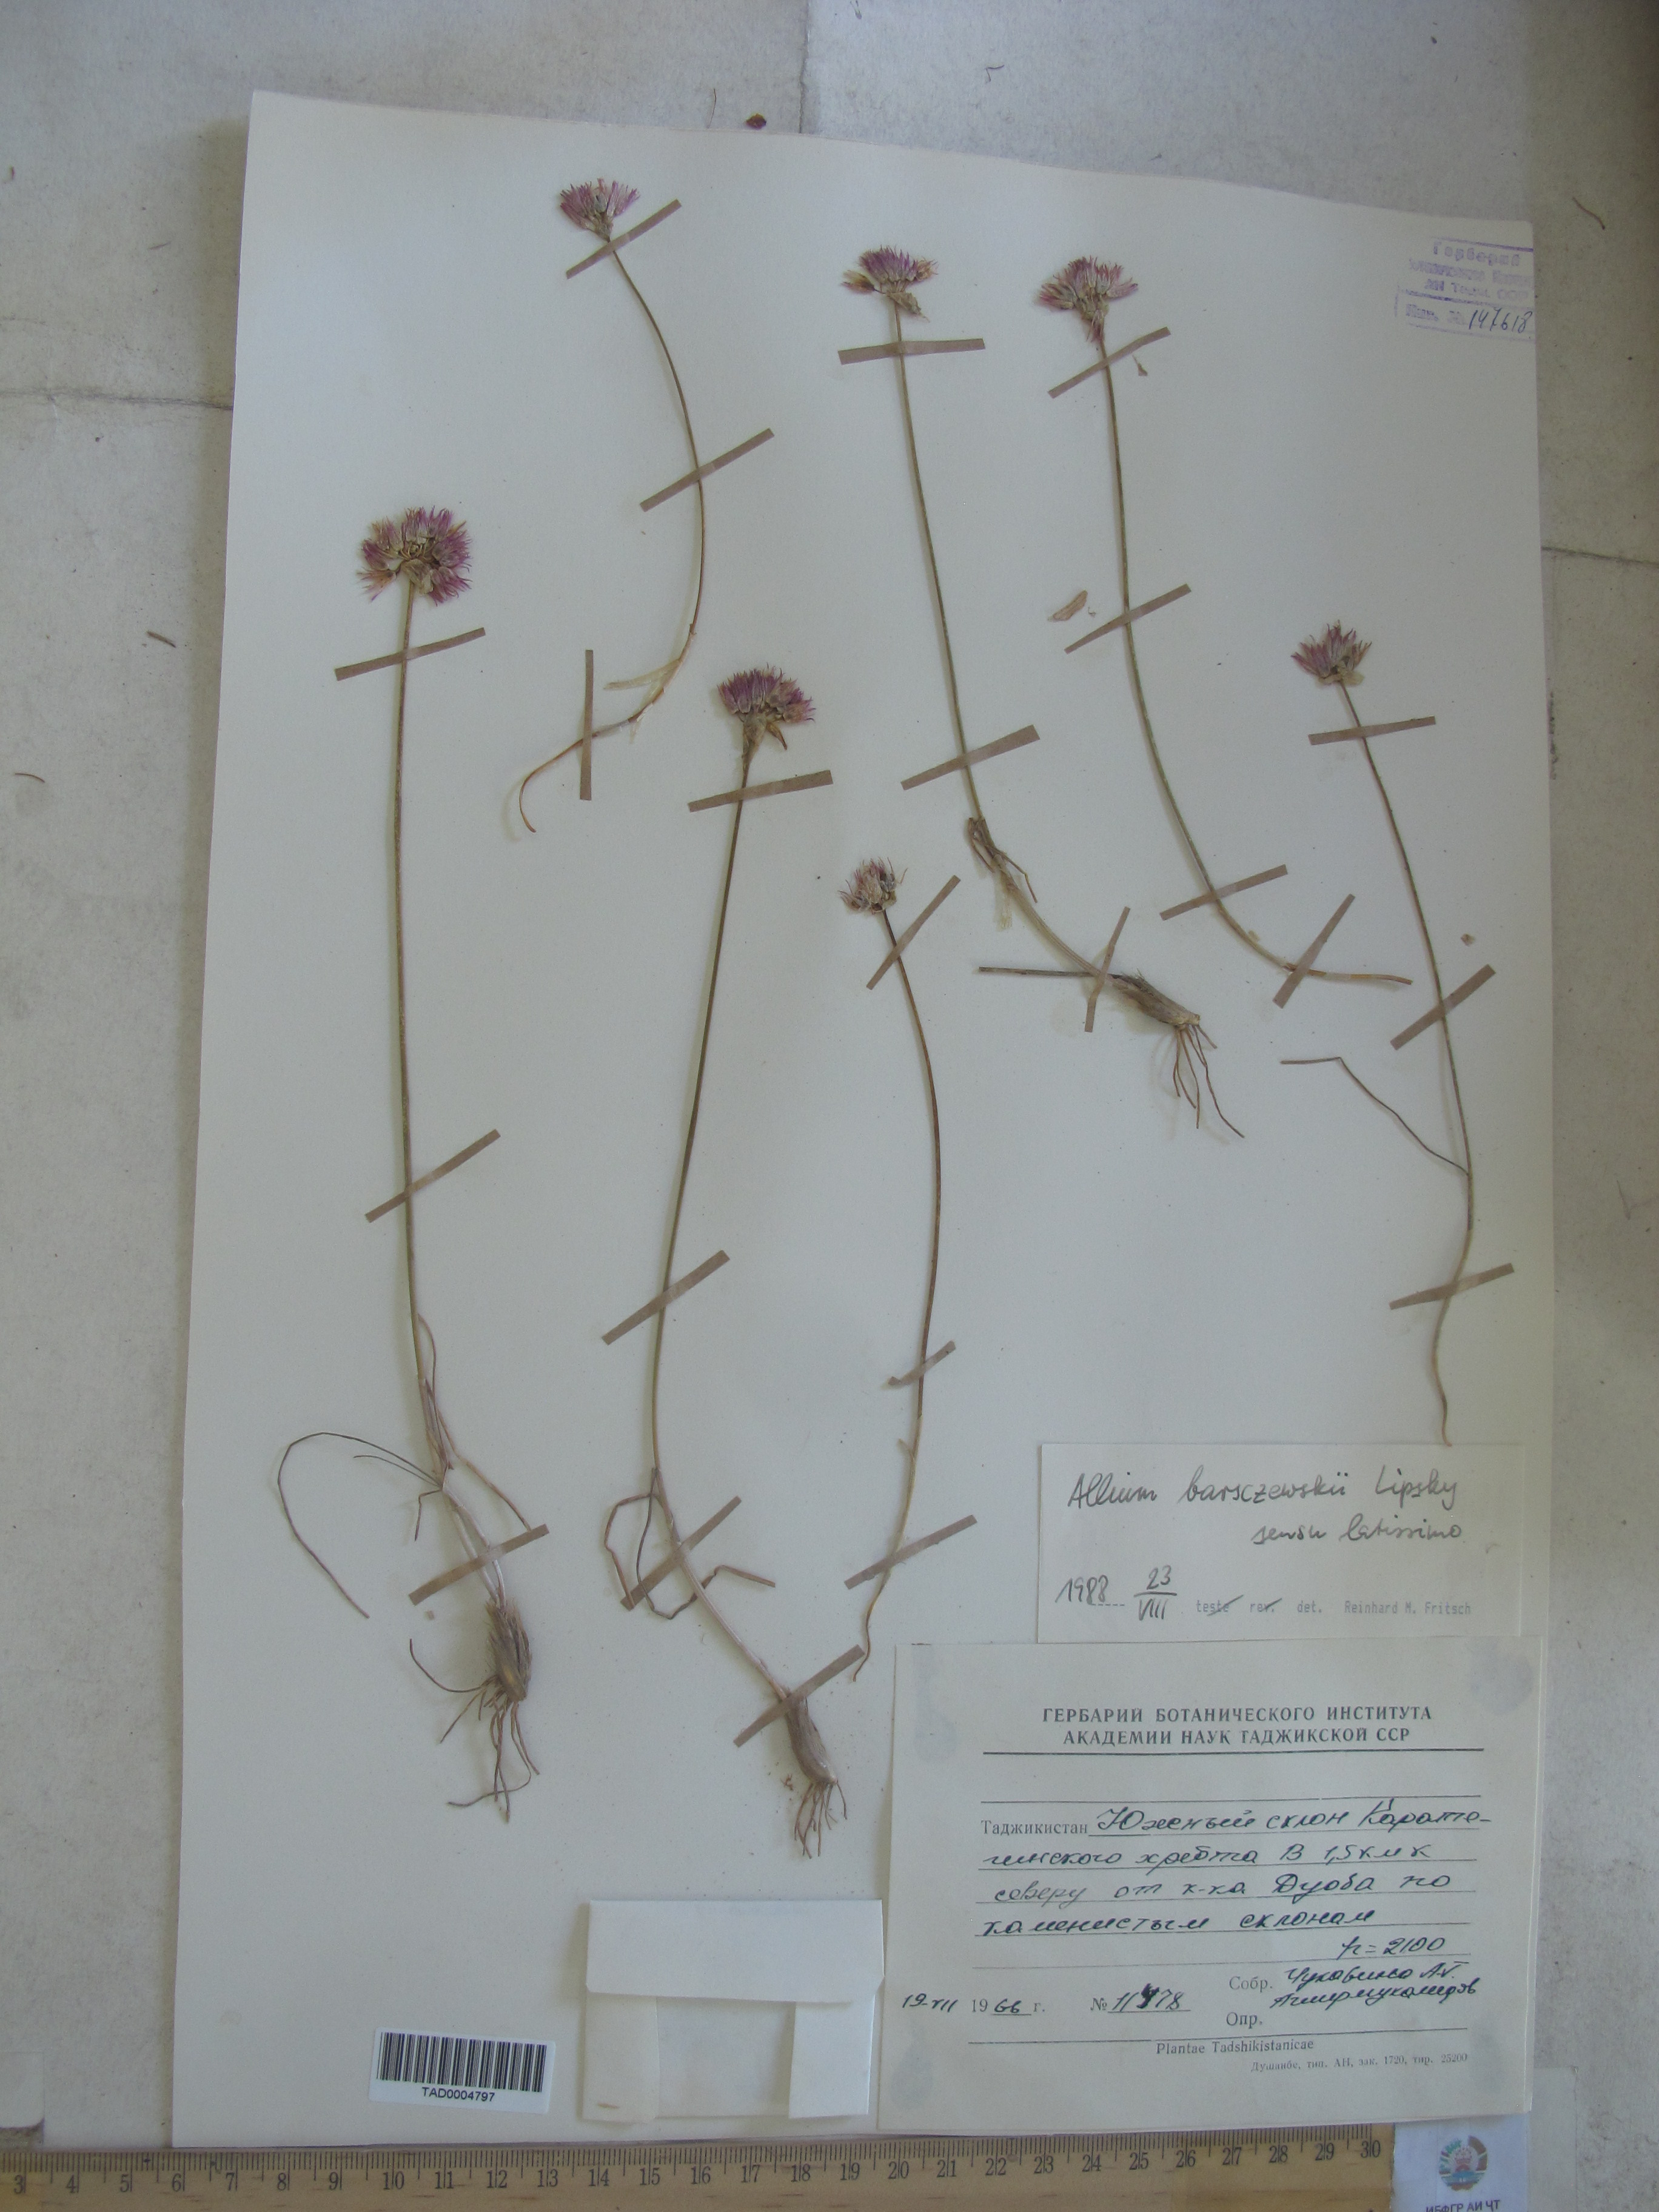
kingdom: Plantae
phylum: Tracheophyta
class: Liliopsida
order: Asparagales
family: Amaryllidaceae
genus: Allium
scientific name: Allium barsczewskii
